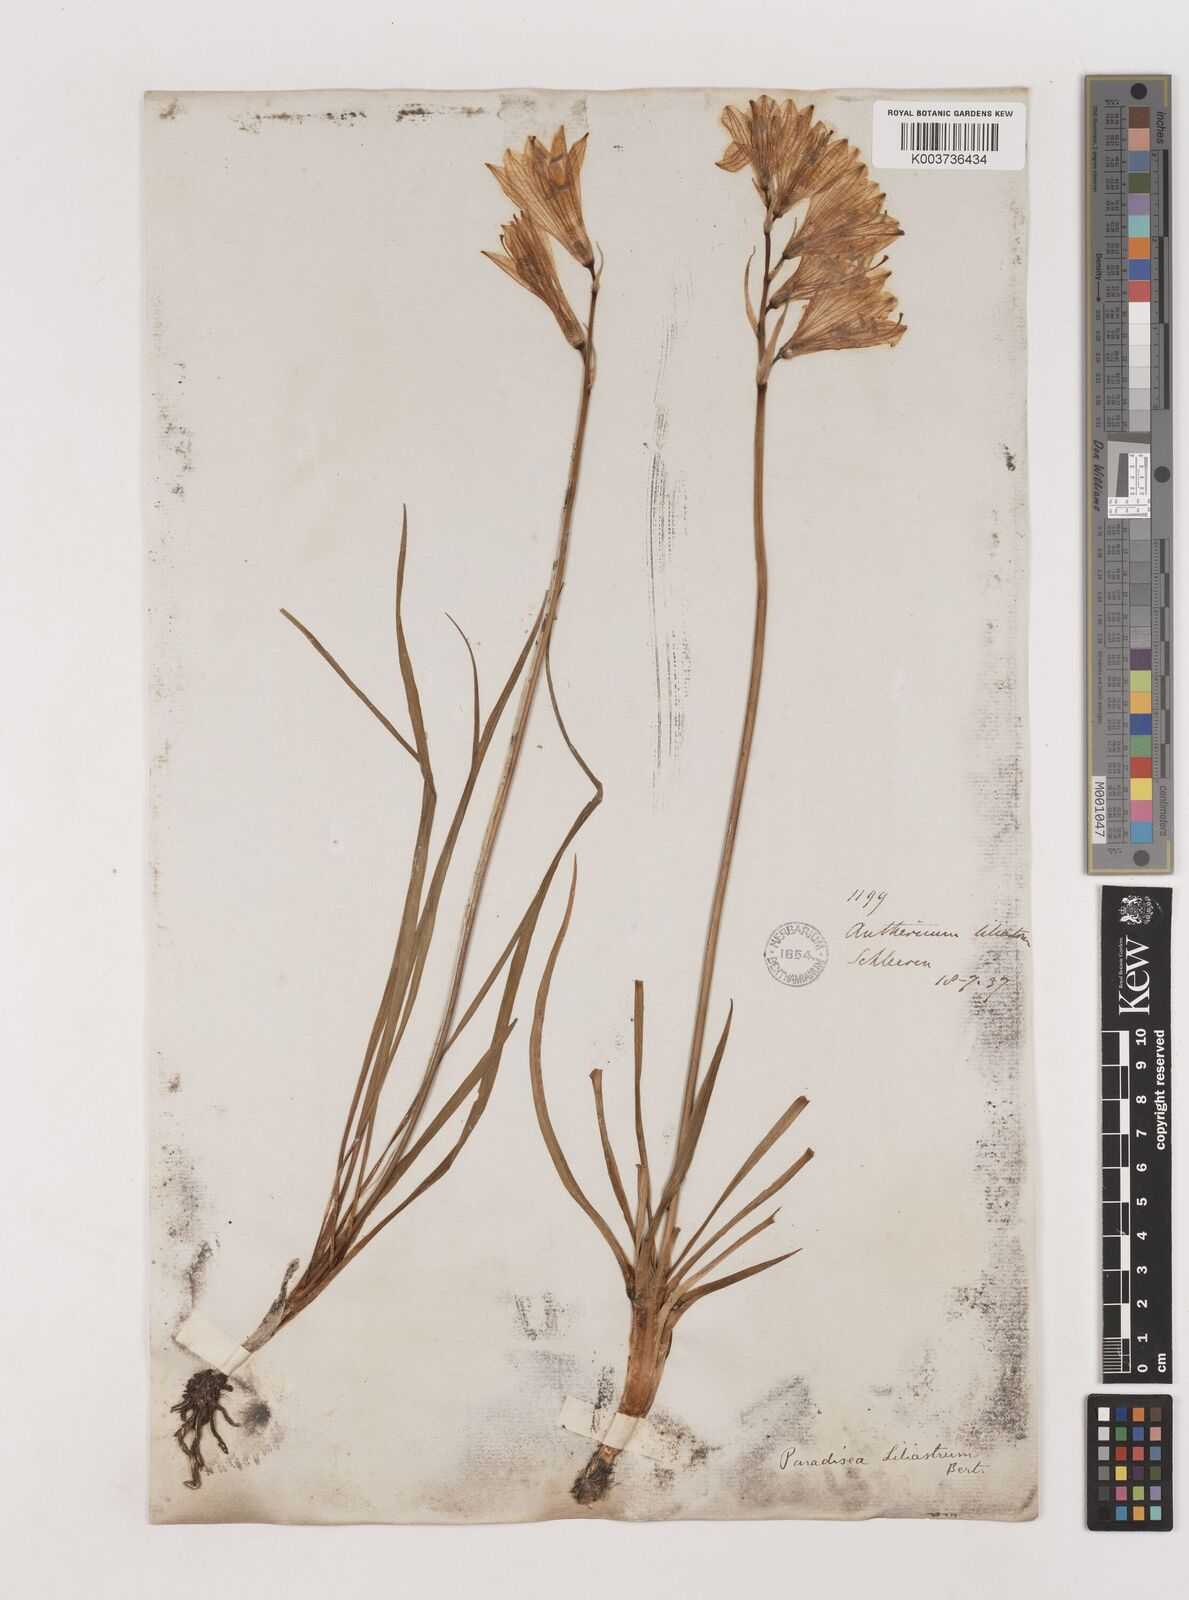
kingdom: Plantae
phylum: Tracheophyta
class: Liliopsida
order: Asparagales
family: Asparagaceae
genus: Paradisea
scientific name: Paradisea liliastrum
